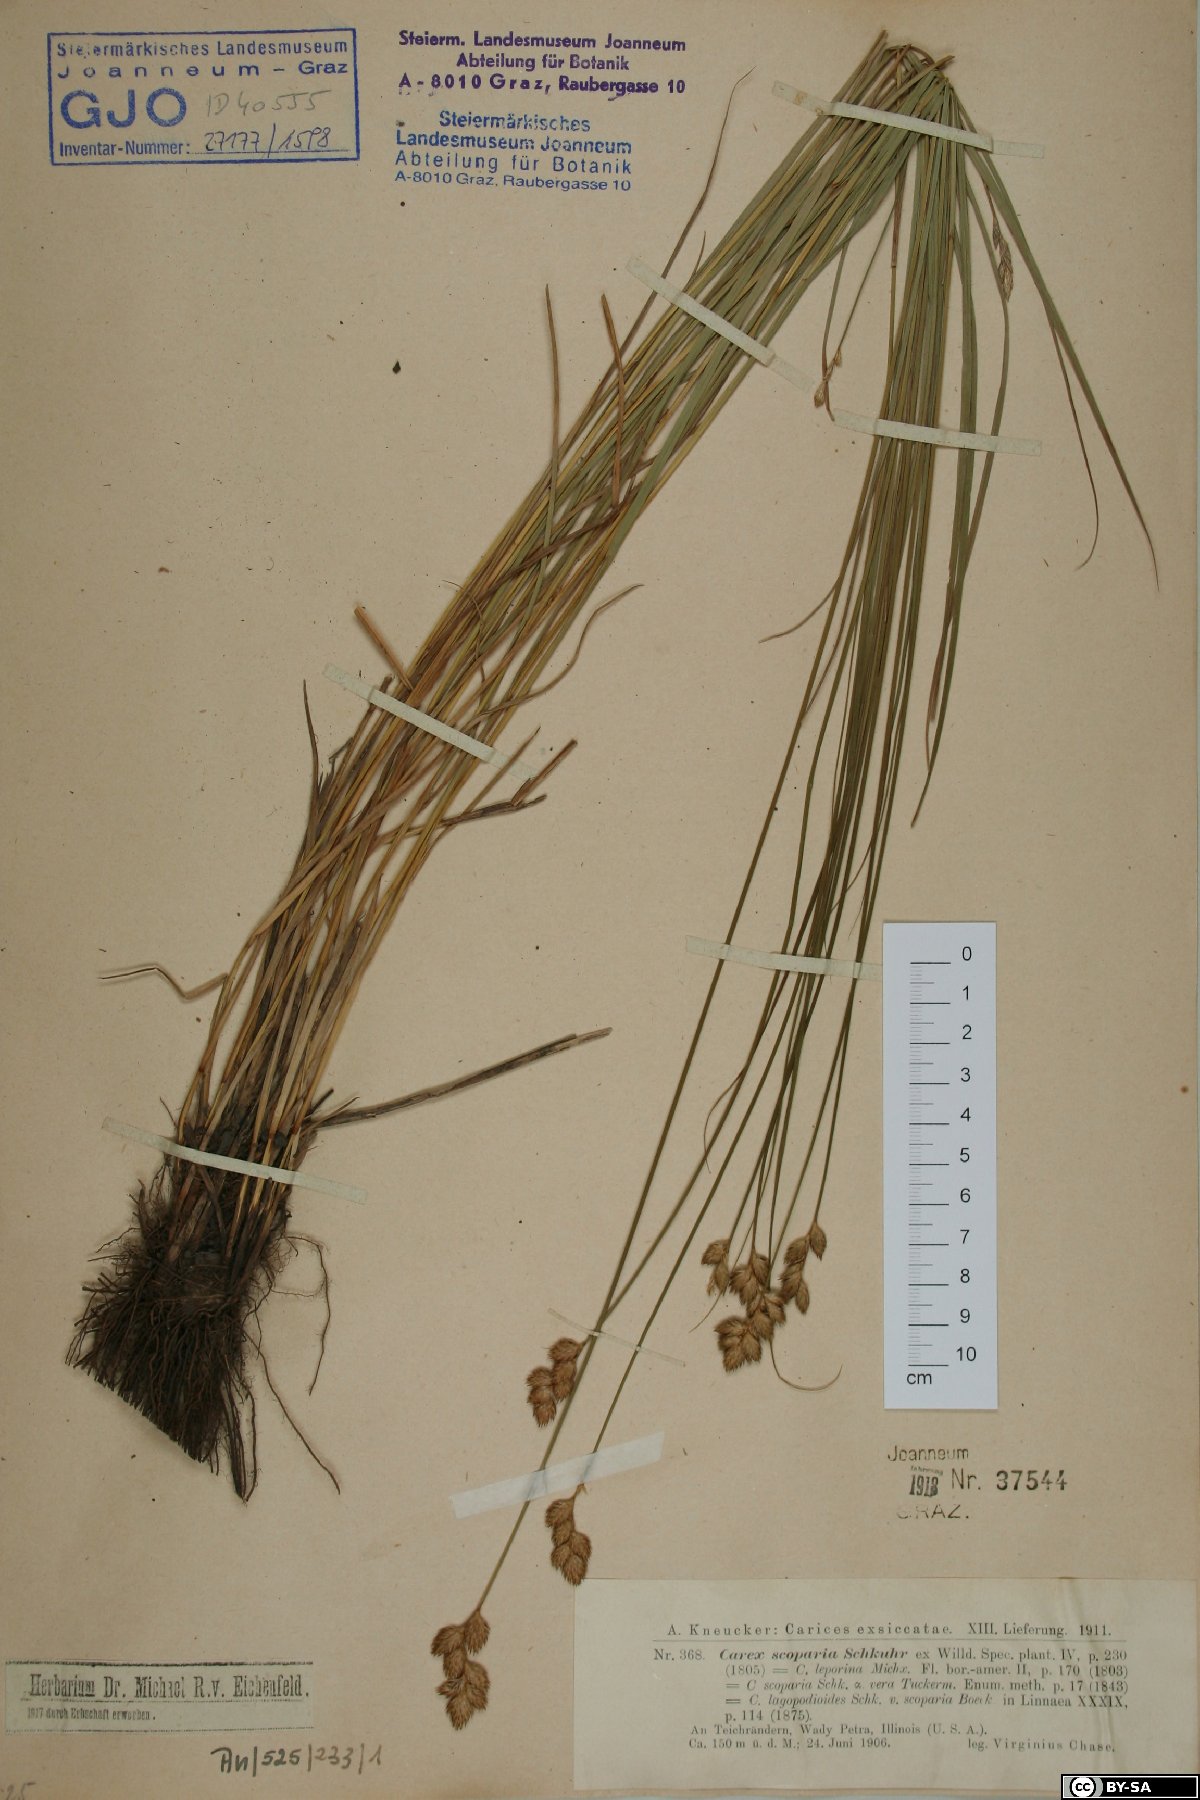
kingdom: Plantae
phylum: Tracheophyta
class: Liliopsida
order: Poales
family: Cyperaceae
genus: Carex
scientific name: Carex scoparia
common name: Broom sedge
